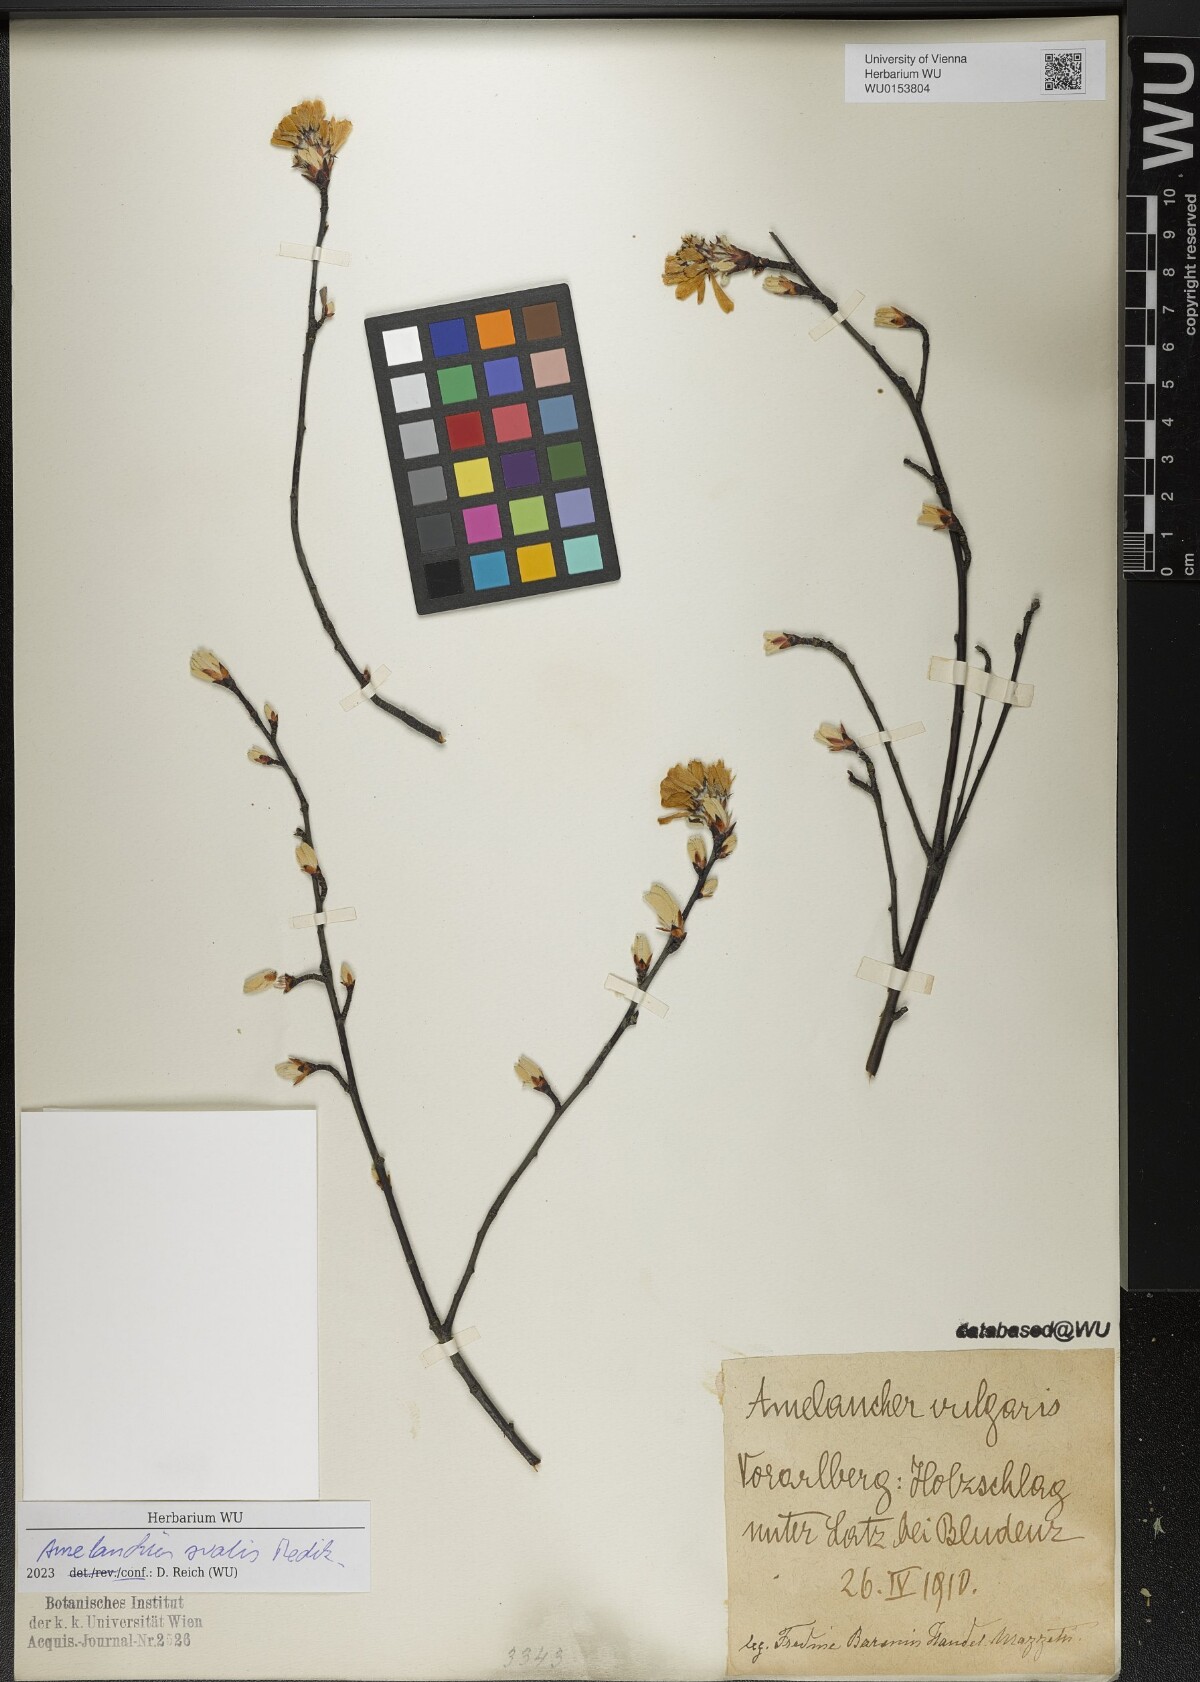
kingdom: Plantae
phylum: Tracheophyta
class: Magnoliopsida
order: Rosales
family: Rosaceae
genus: Amelanchier
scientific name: Amelanchier ovalis
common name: Serviceberry
